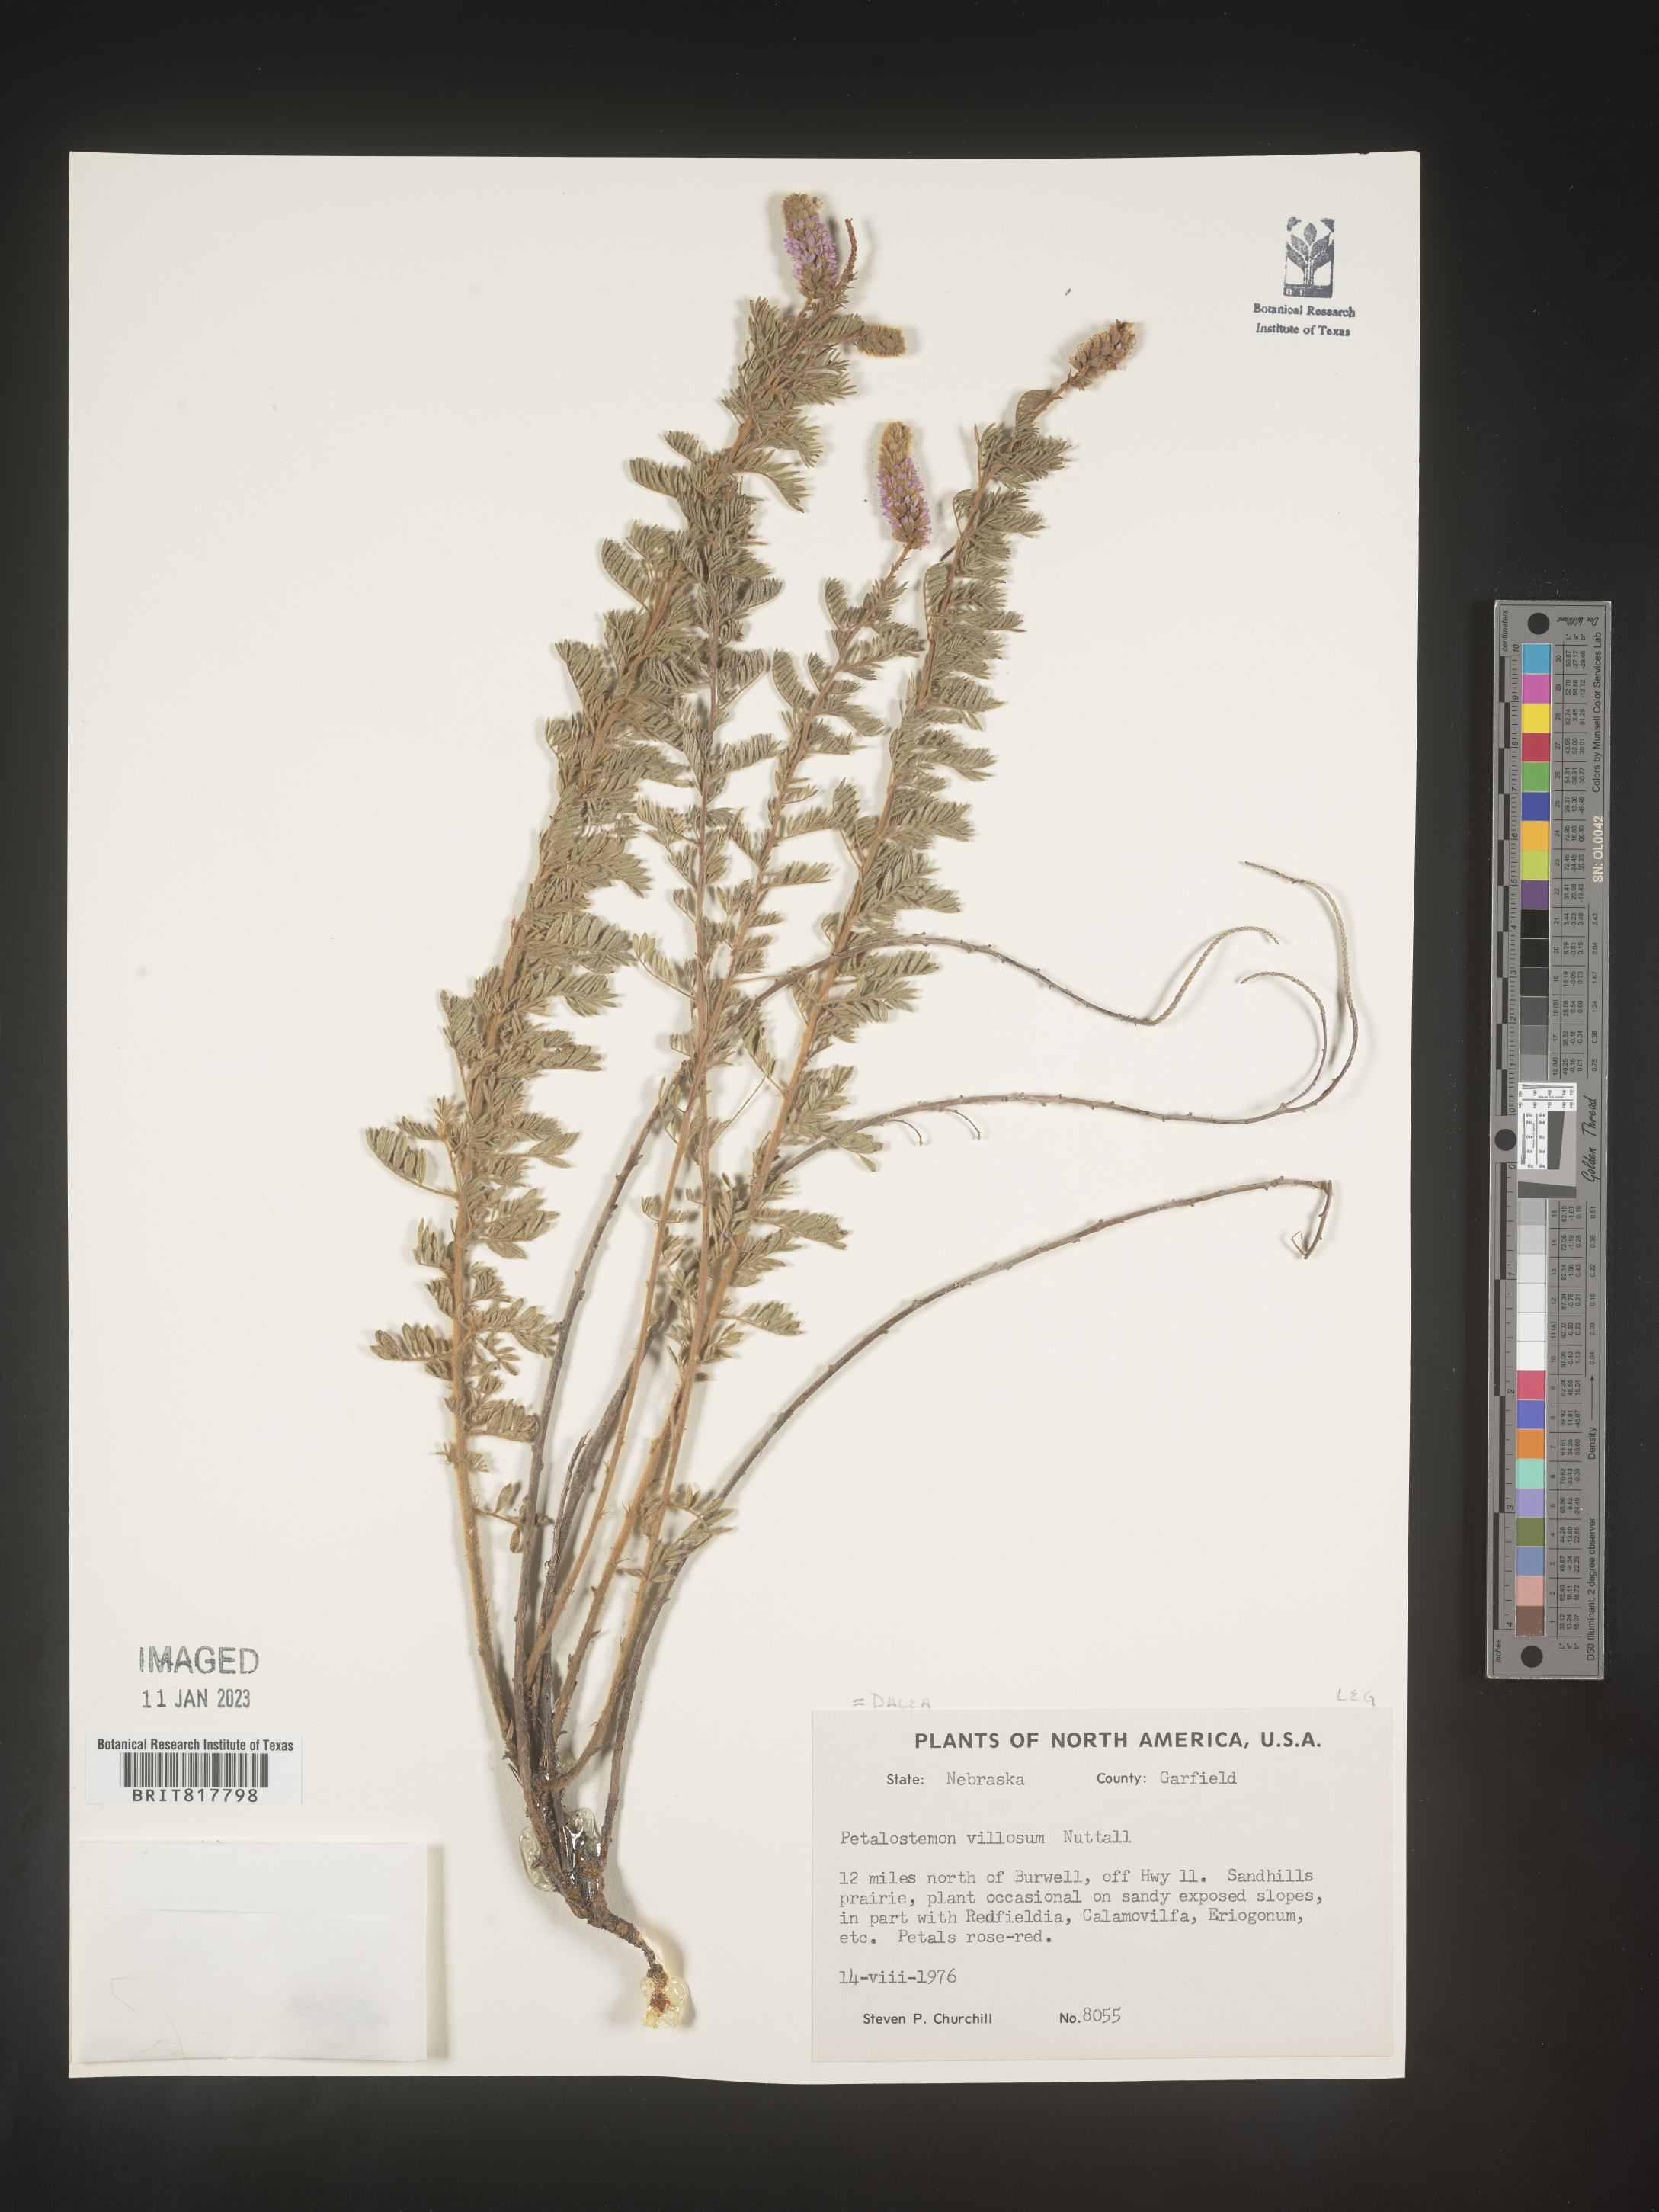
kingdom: Plantae
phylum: Tracheophyta
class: Magnoliopsida
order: Fabales
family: Fabaceae
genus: Dalea
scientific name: Dalea villosa
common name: Silky prairie-clover
